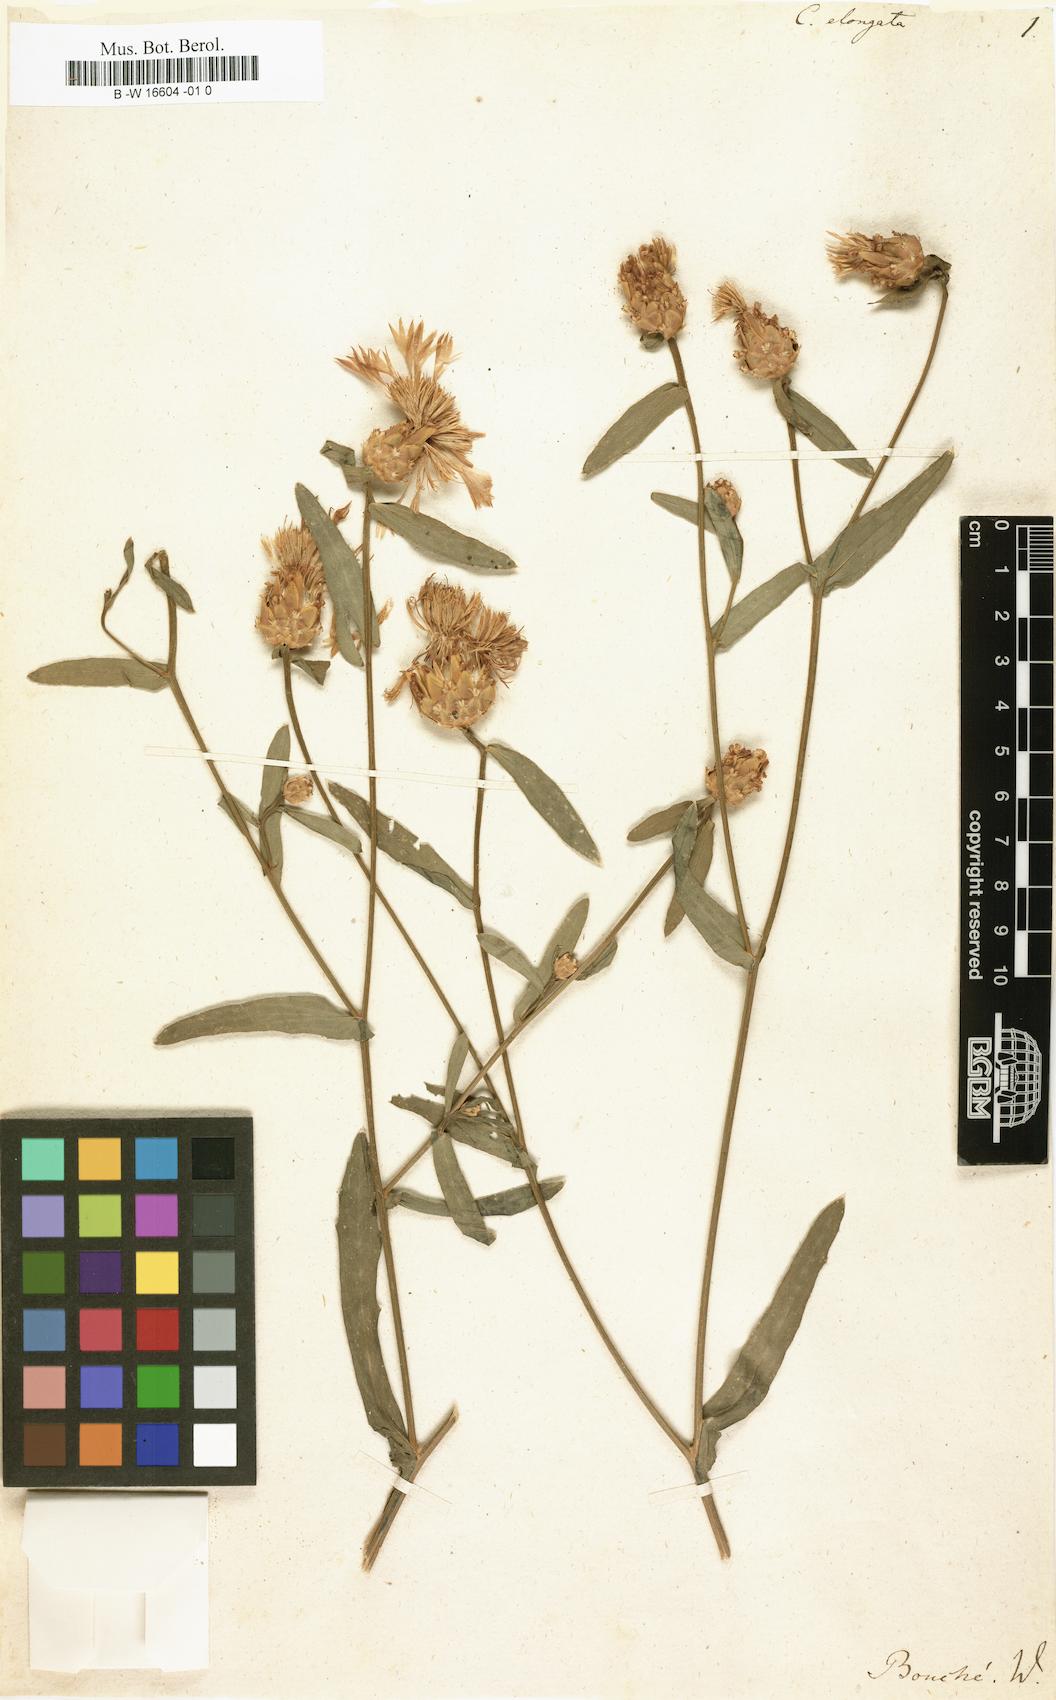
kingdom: Plantae
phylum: Tracheophyta
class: Magnoliopsida
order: Asterales
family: Asteraceae
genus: Centaurea
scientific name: Centaurea elongata
